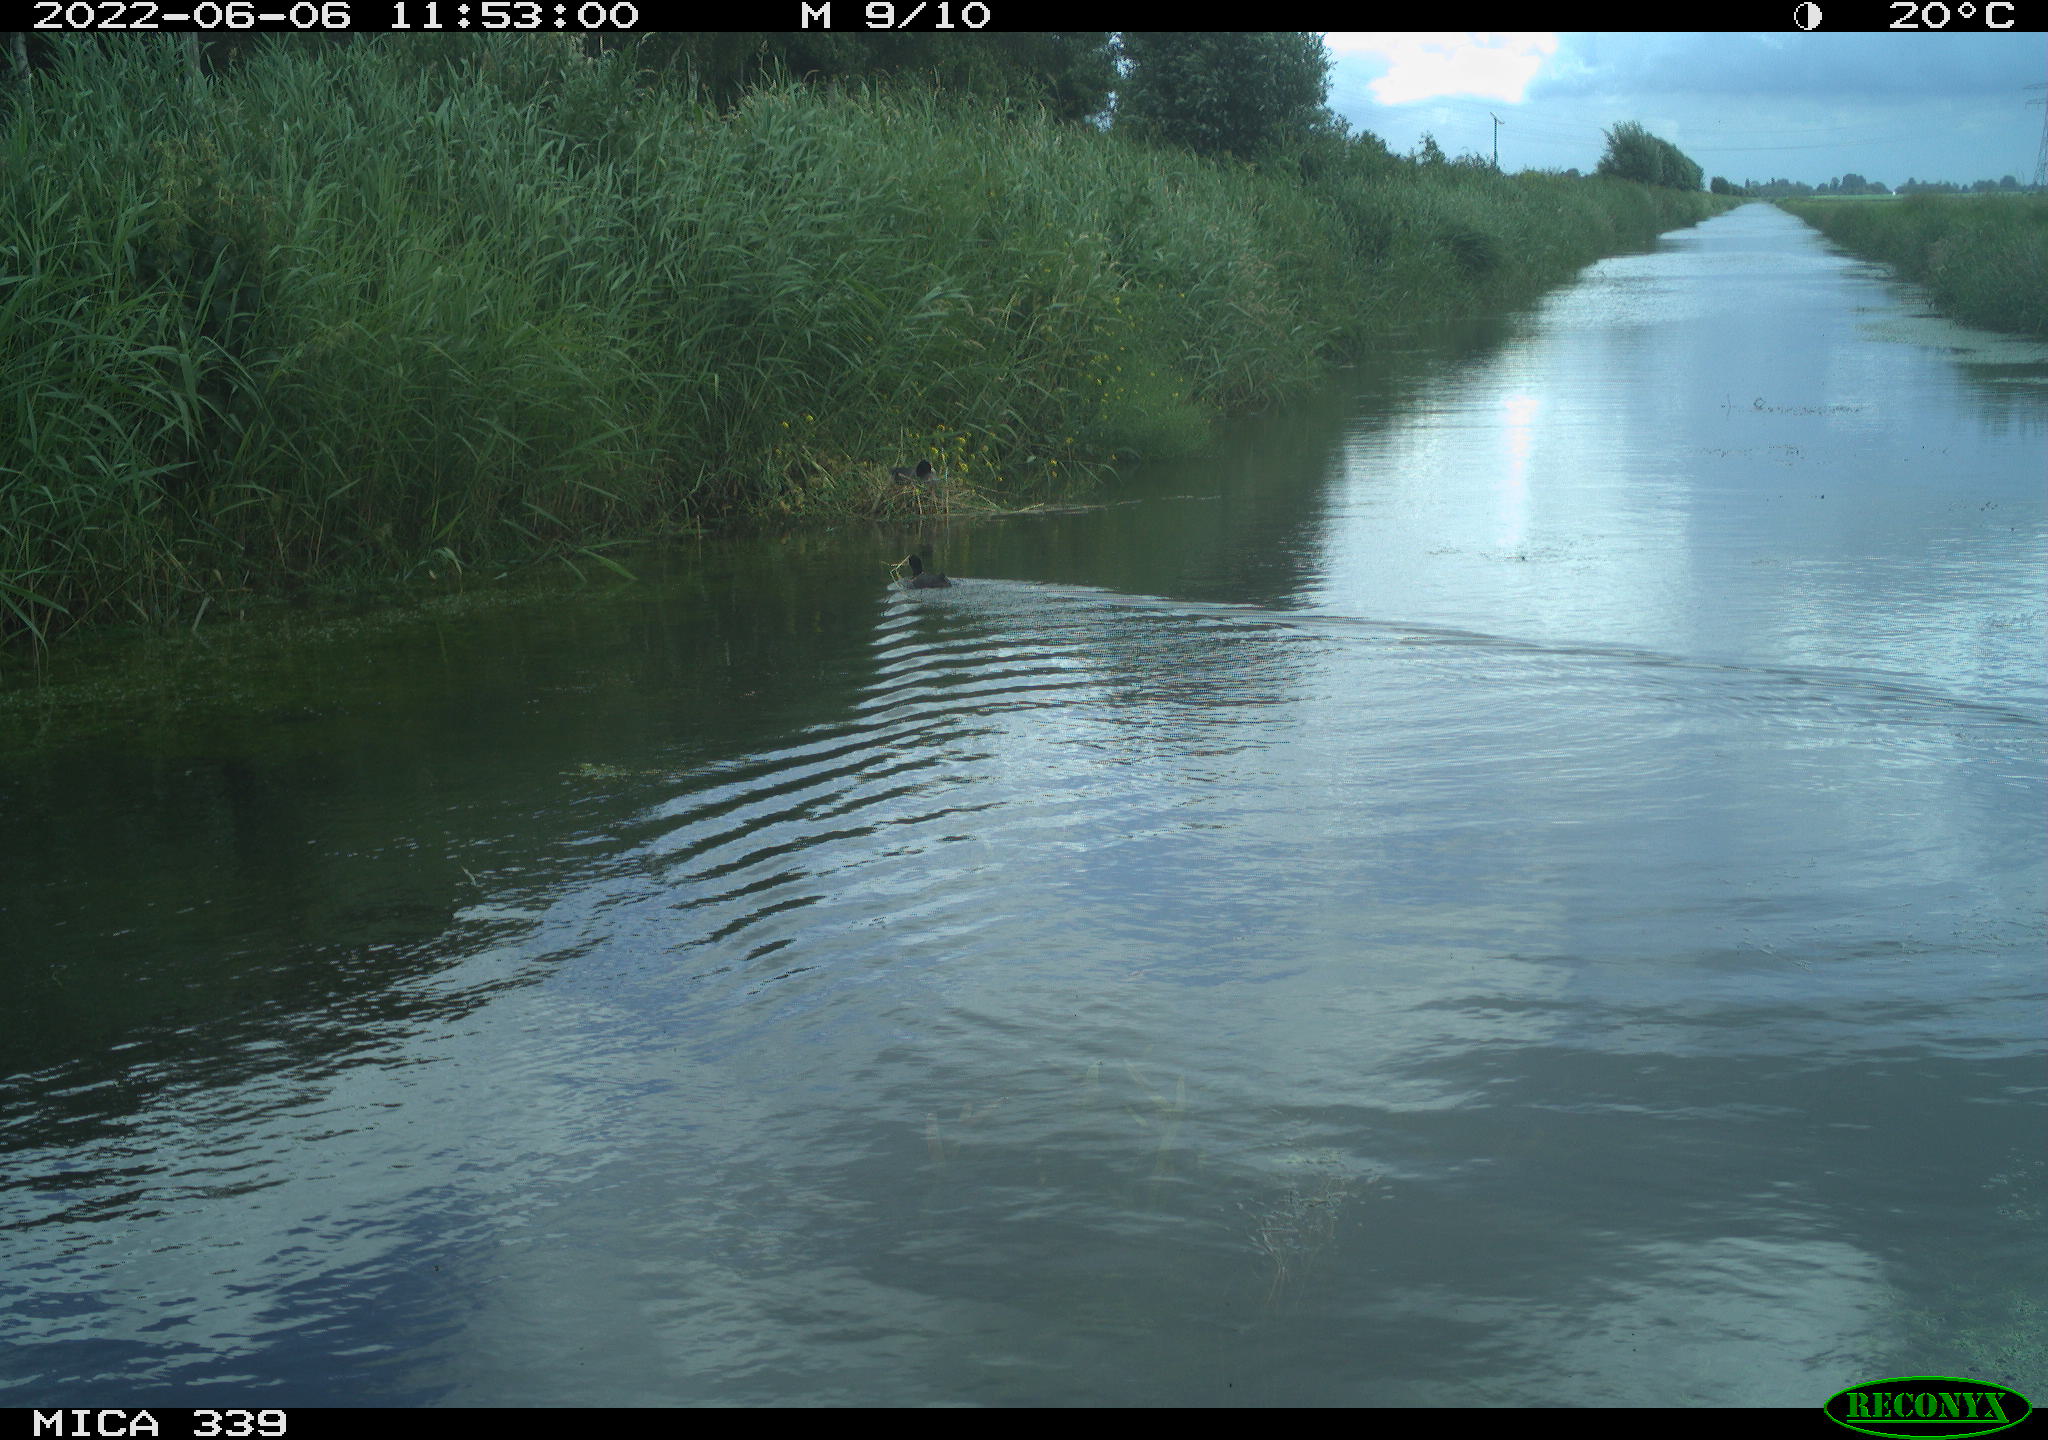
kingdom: Animalia
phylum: Chordata
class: Aves
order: Gruiformes
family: Rallidae
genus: Fulica
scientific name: Fulica atra
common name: Eurasian coot
